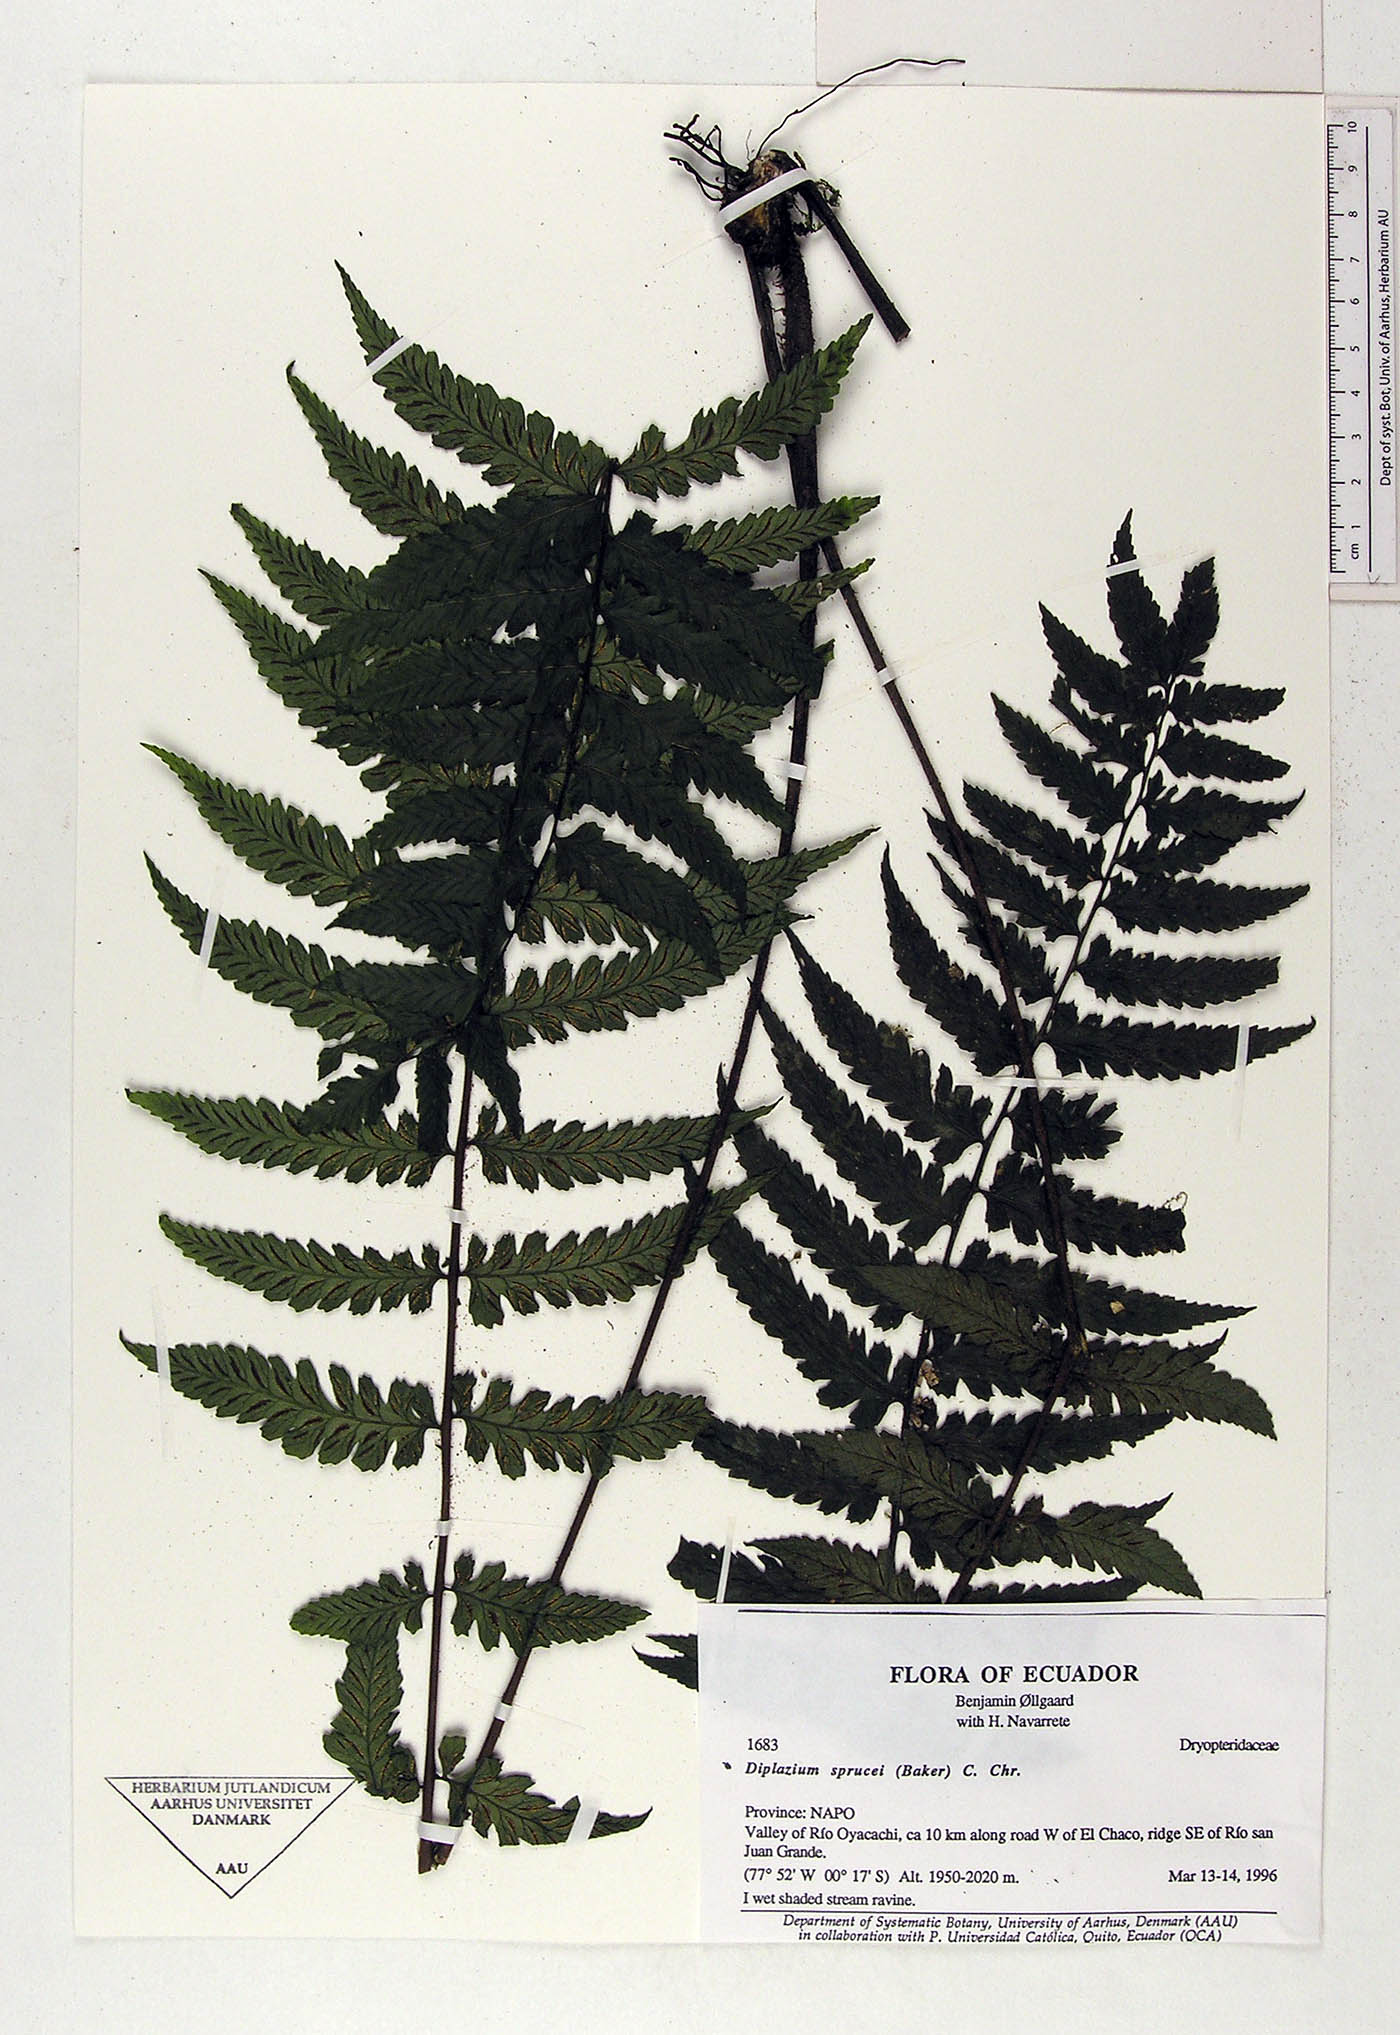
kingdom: Plantae
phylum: Tracheophyta
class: Polypodiopsida
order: Polypodiales
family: Athyriaceae
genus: Diplazium
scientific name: Diplazium sprucei
